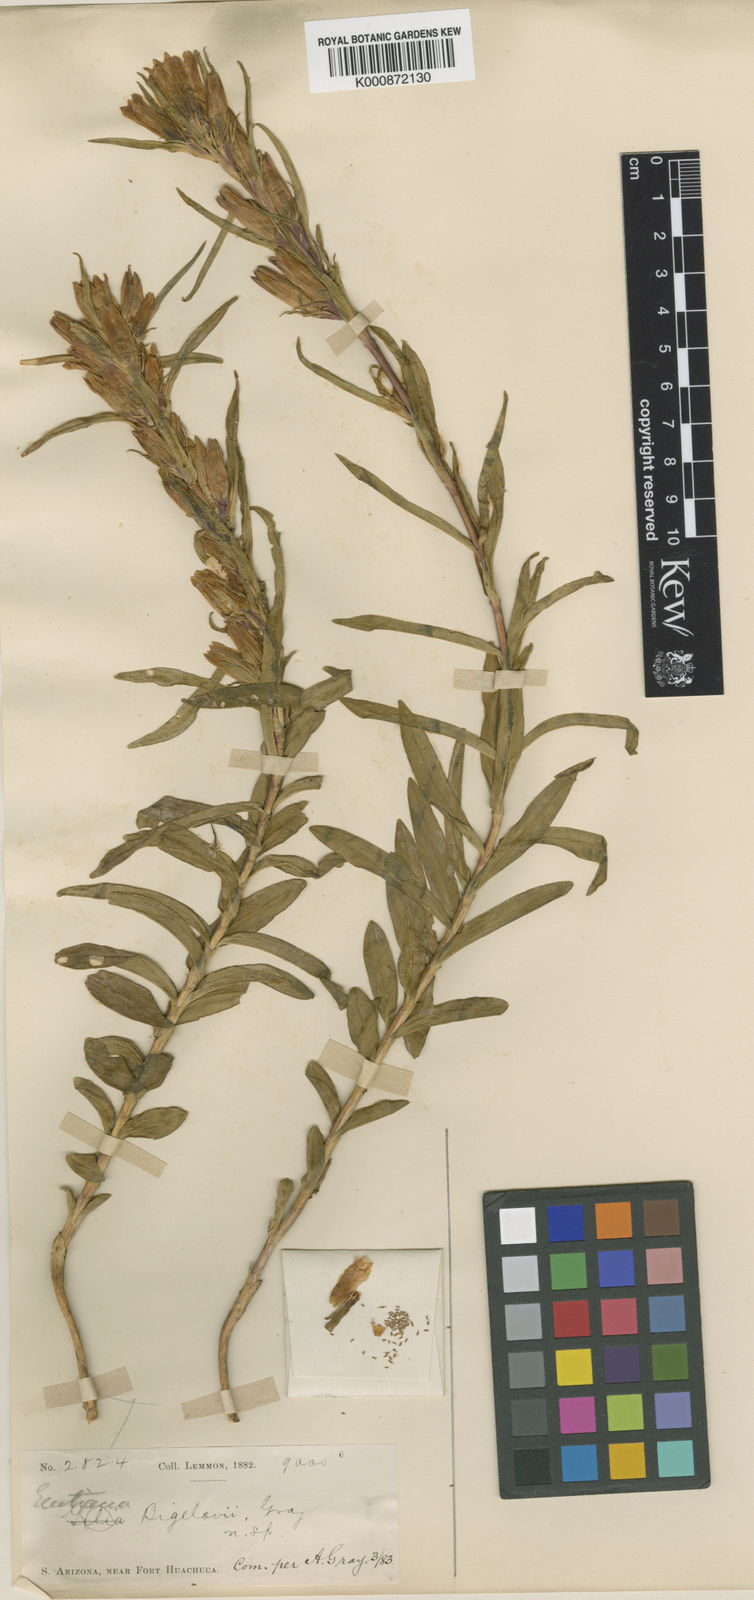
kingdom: Plantae
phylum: Tracheophyta
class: Magnoliopsida
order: Gentianales
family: Gentianaceae
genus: Gentiana
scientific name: Gentiana affinis
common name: Rocky mountain gentian
